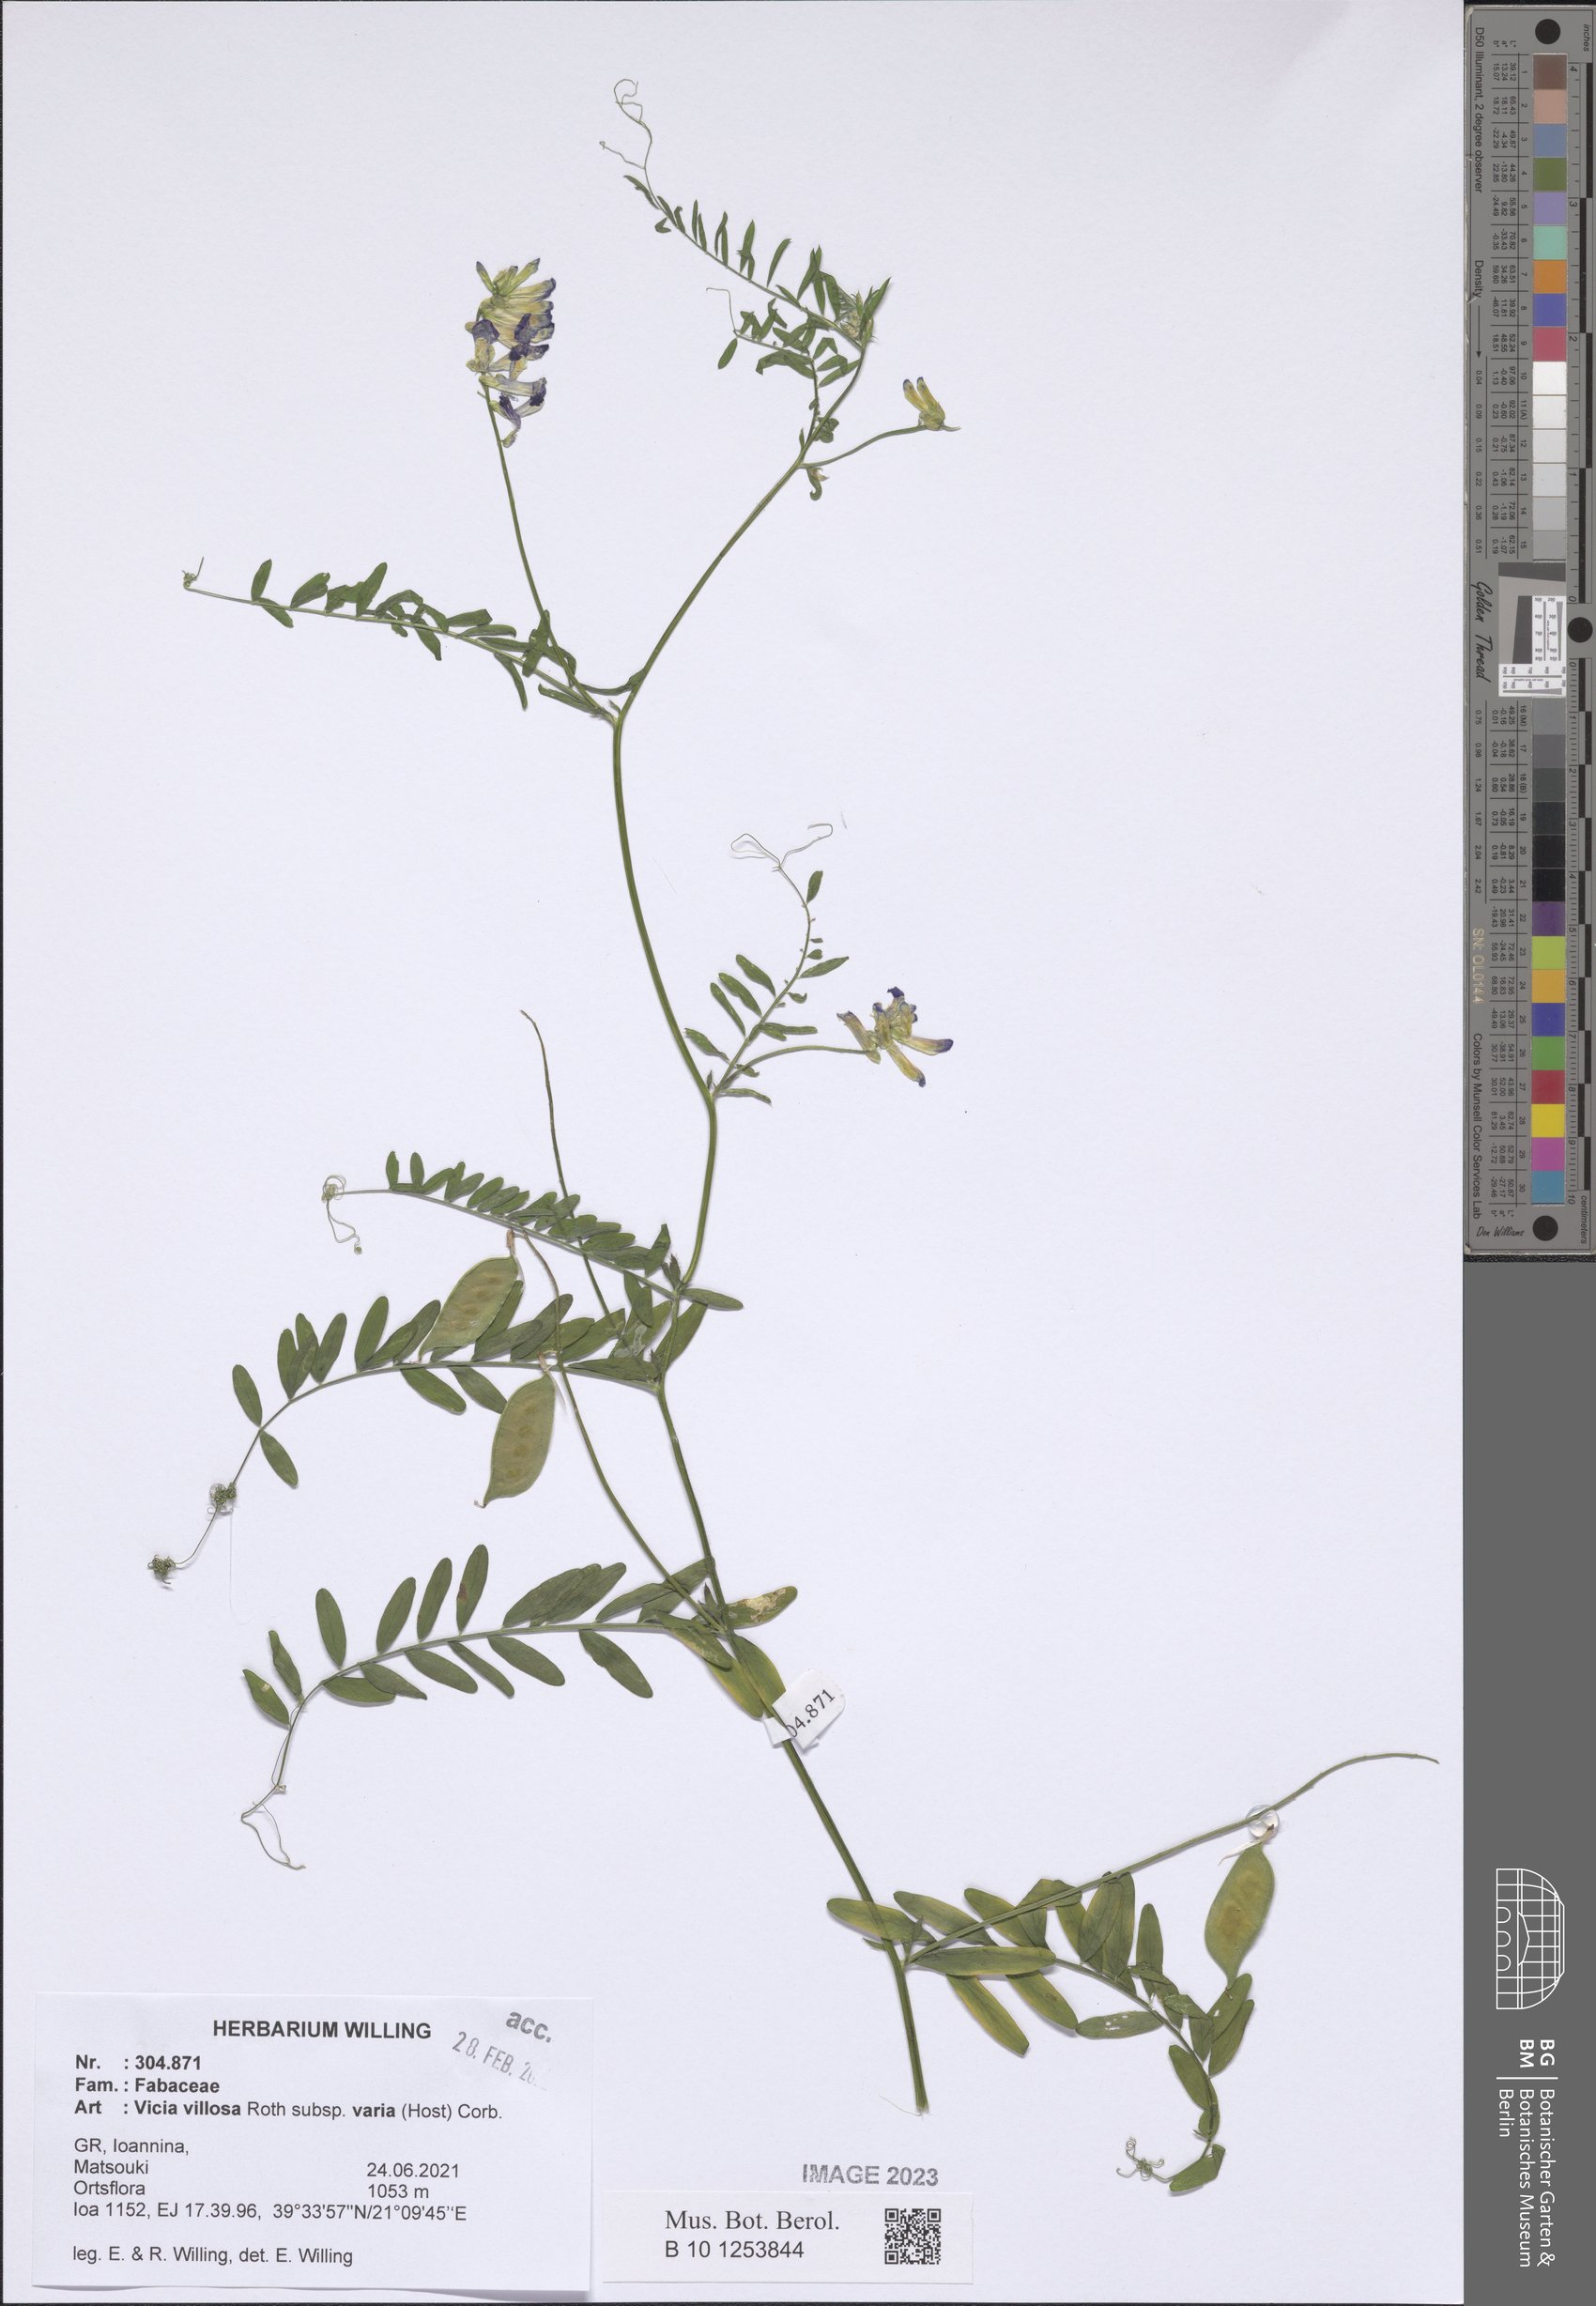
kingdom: Plantae
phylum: Tracheophyta
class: Magnoliopsida
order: Fabales
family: Fabaceae
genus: Vicia
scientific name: Vicia villosa
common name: Fodder vetch
